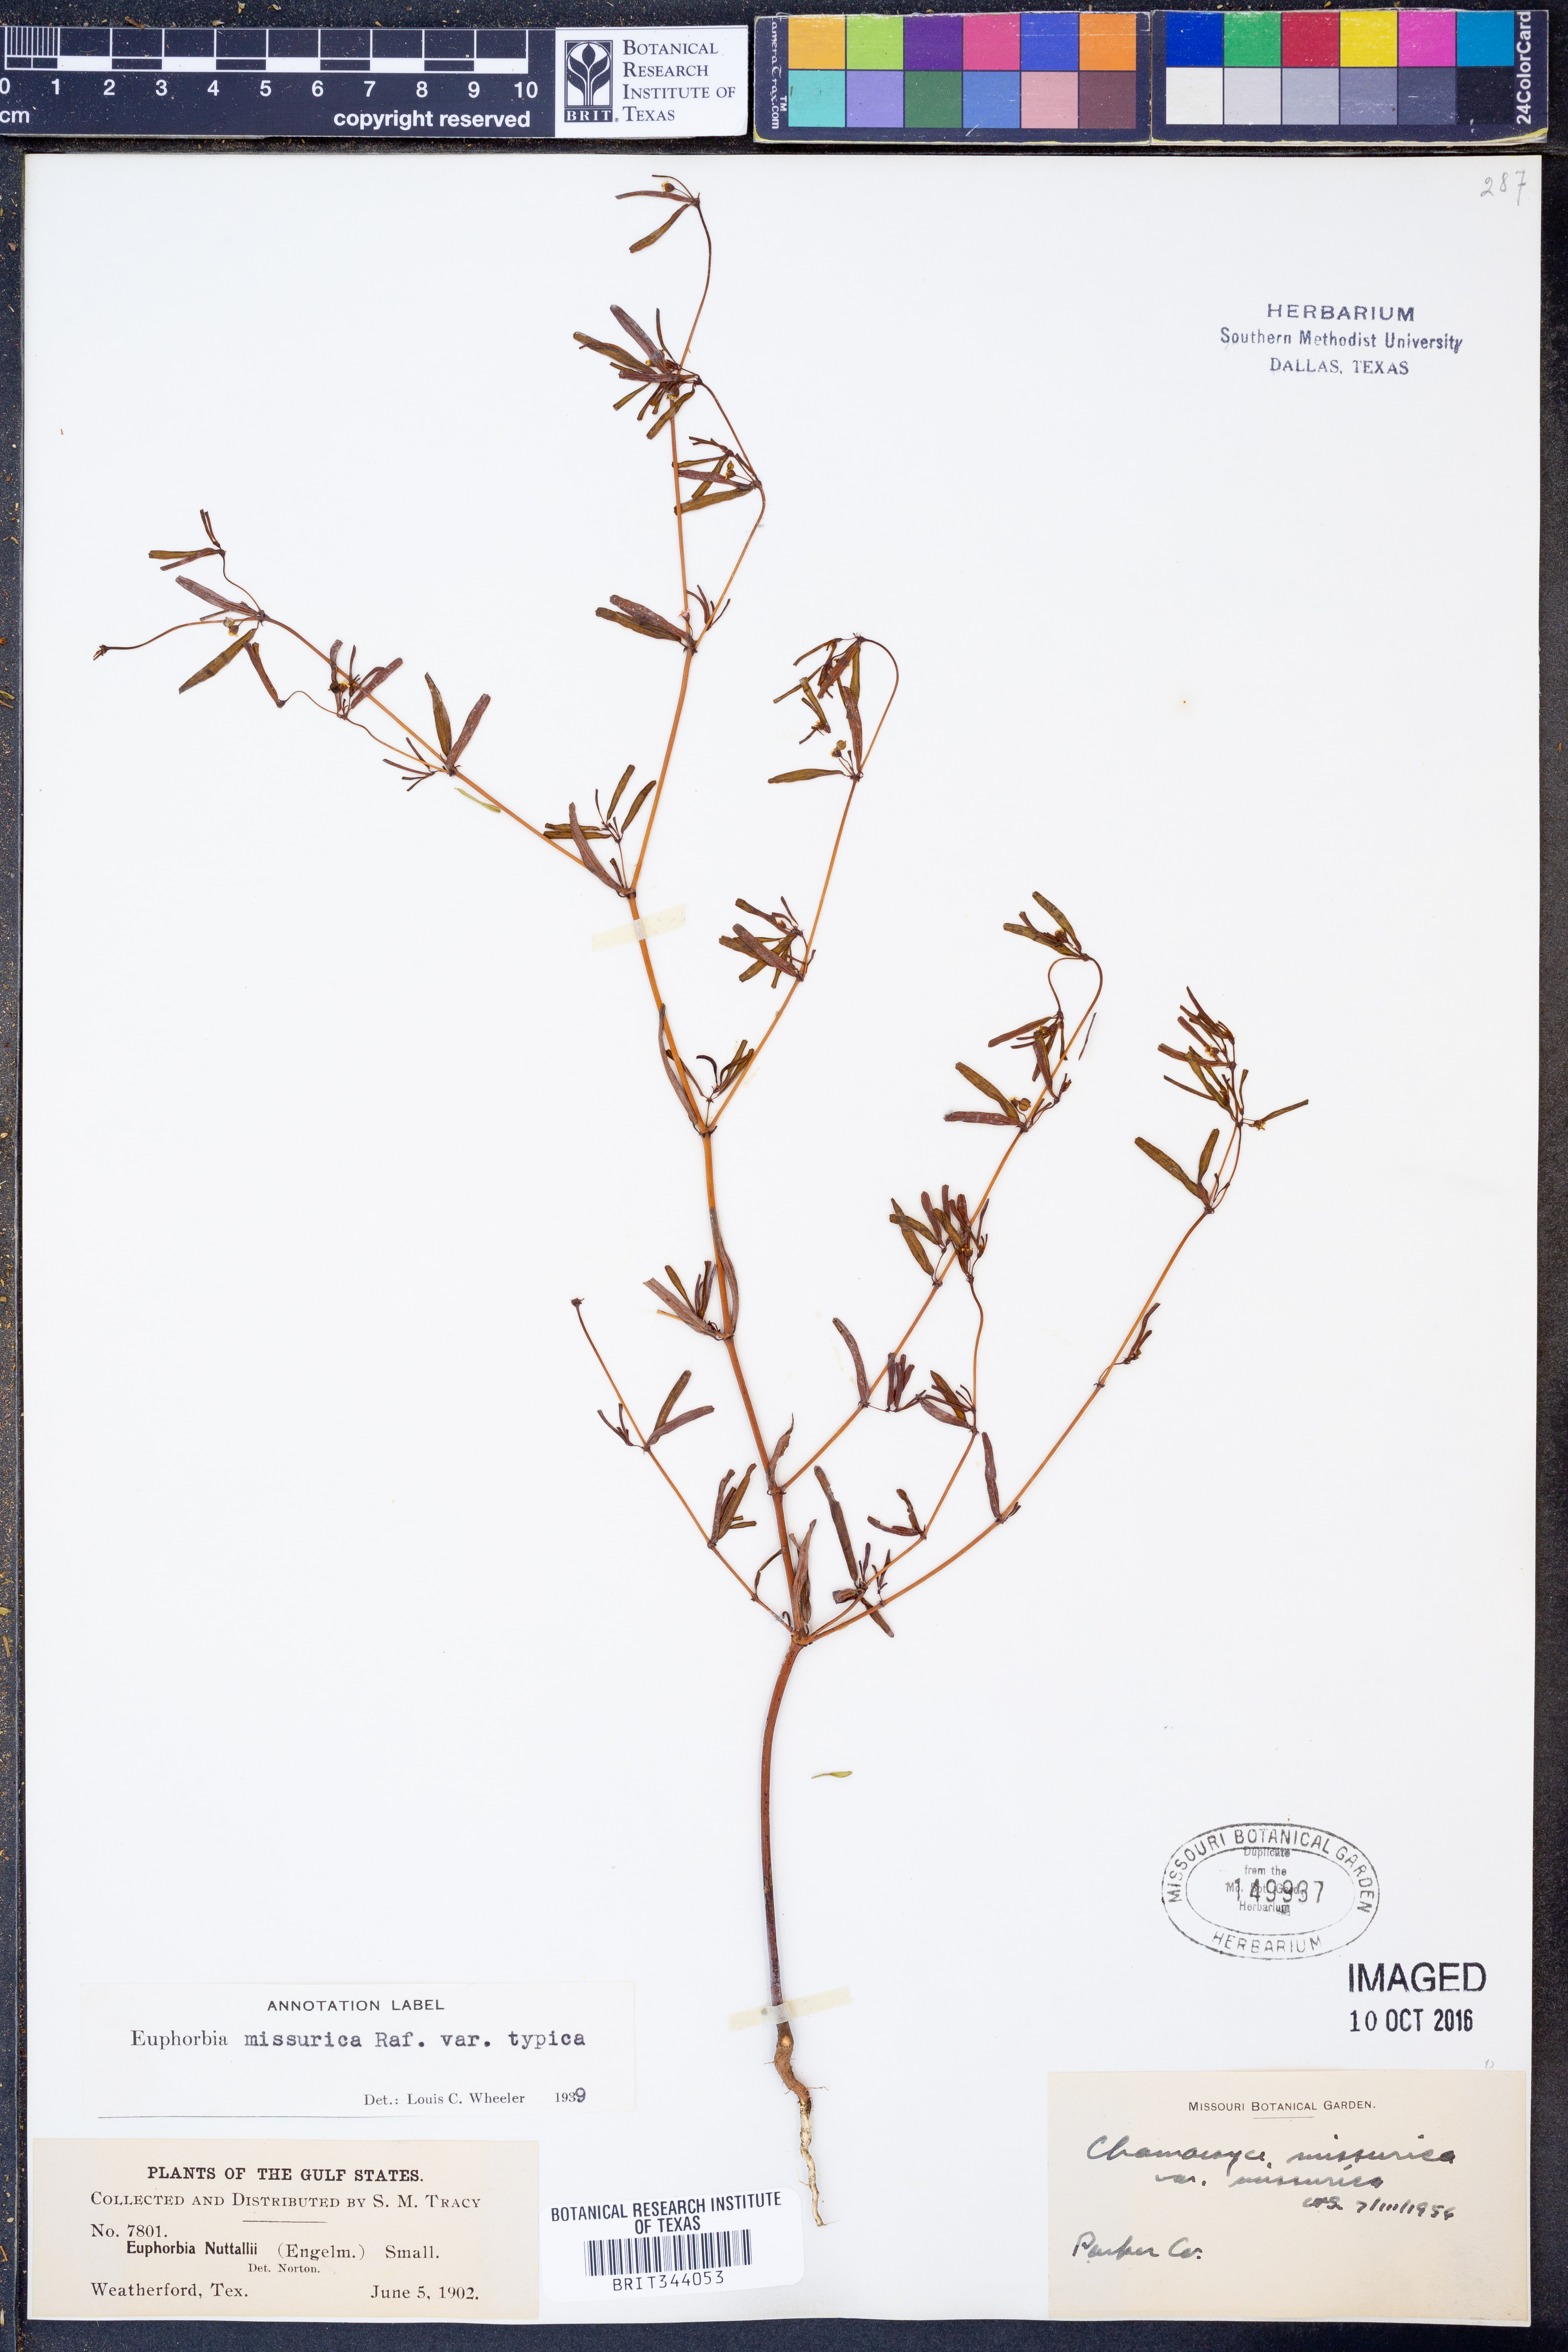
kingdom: Plantae
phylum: Tracheophyta
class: Magnoliopsida
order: Malpighiales
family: Euphorbiaceae
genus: Euphorbia
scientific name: Euphorbia missurica
